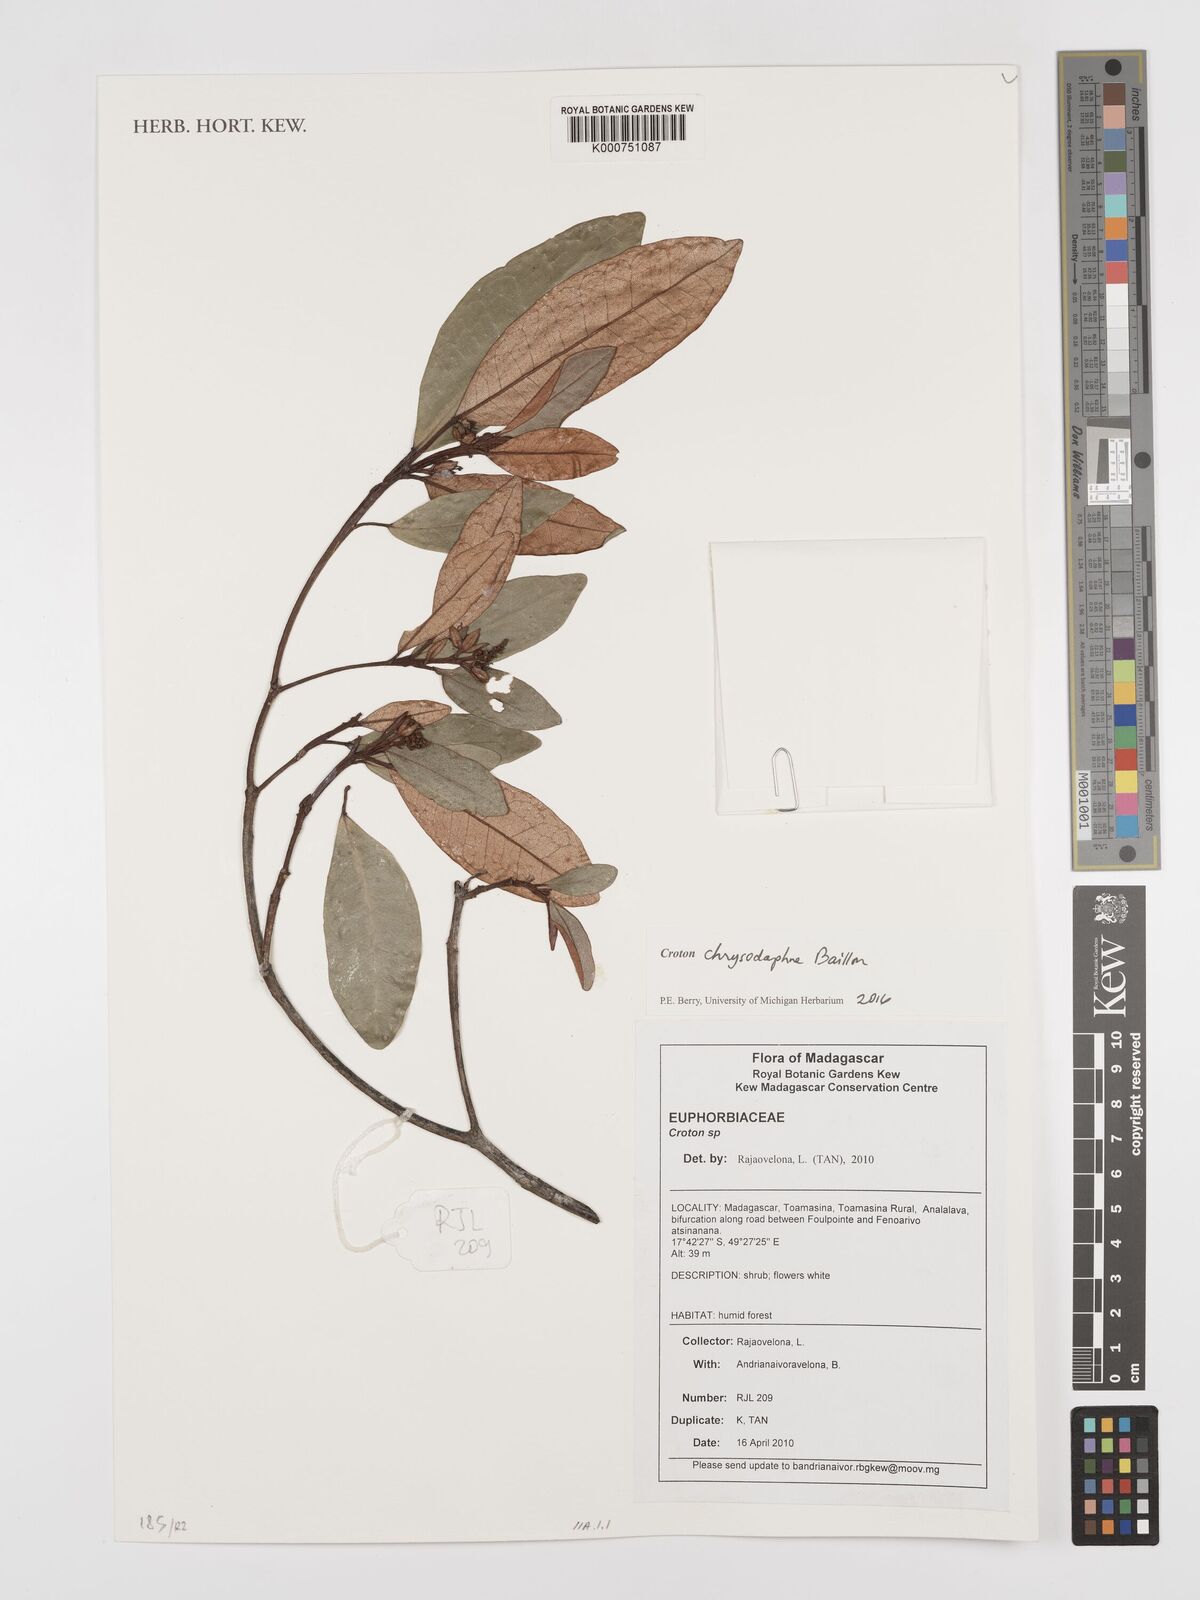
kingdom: Plantae
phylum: Tracheophyta
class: Magnoliopsida
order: Malpighiales
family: Euphorbiaceae
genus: Croton
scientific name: Croton chrysodaphne
